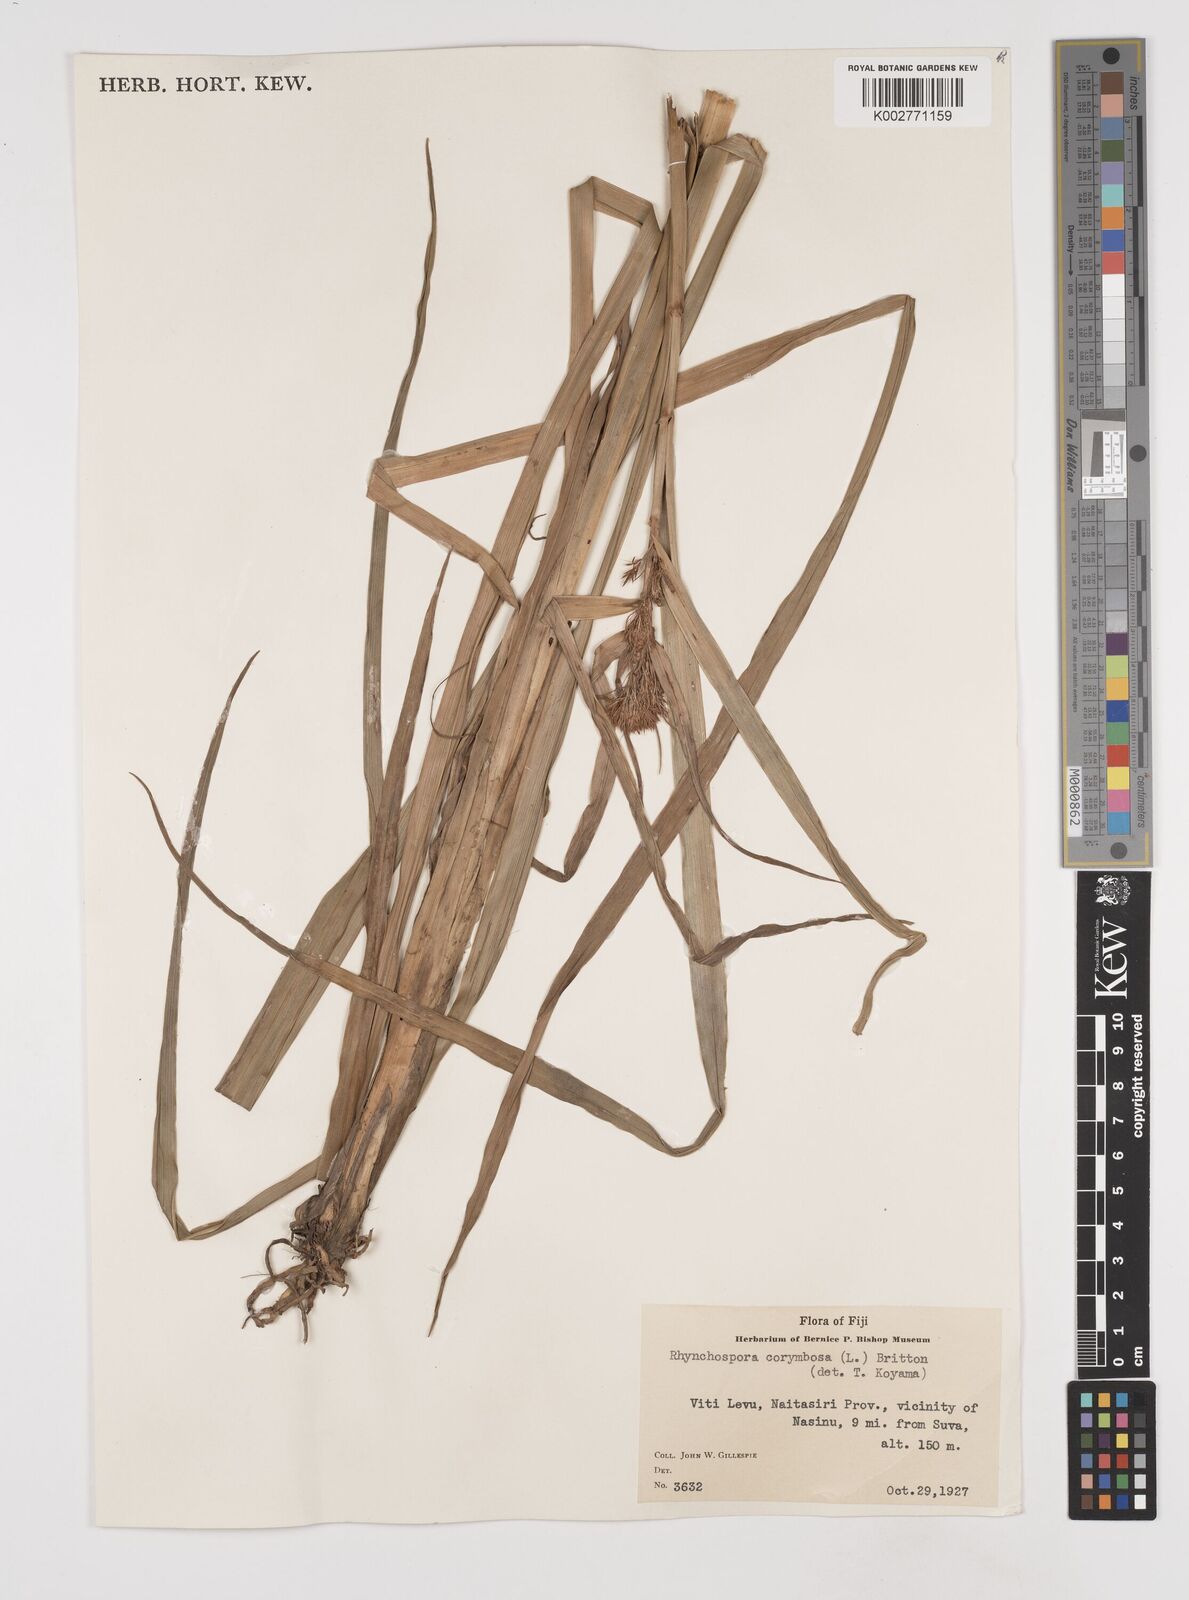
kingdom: Plantae
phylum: Tracheophyta
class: Liliopsida
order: Poales
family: Cyperaceae
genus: Rhynchospora
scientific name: Rhynchospora corymbosa
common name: Golden beak sedge
